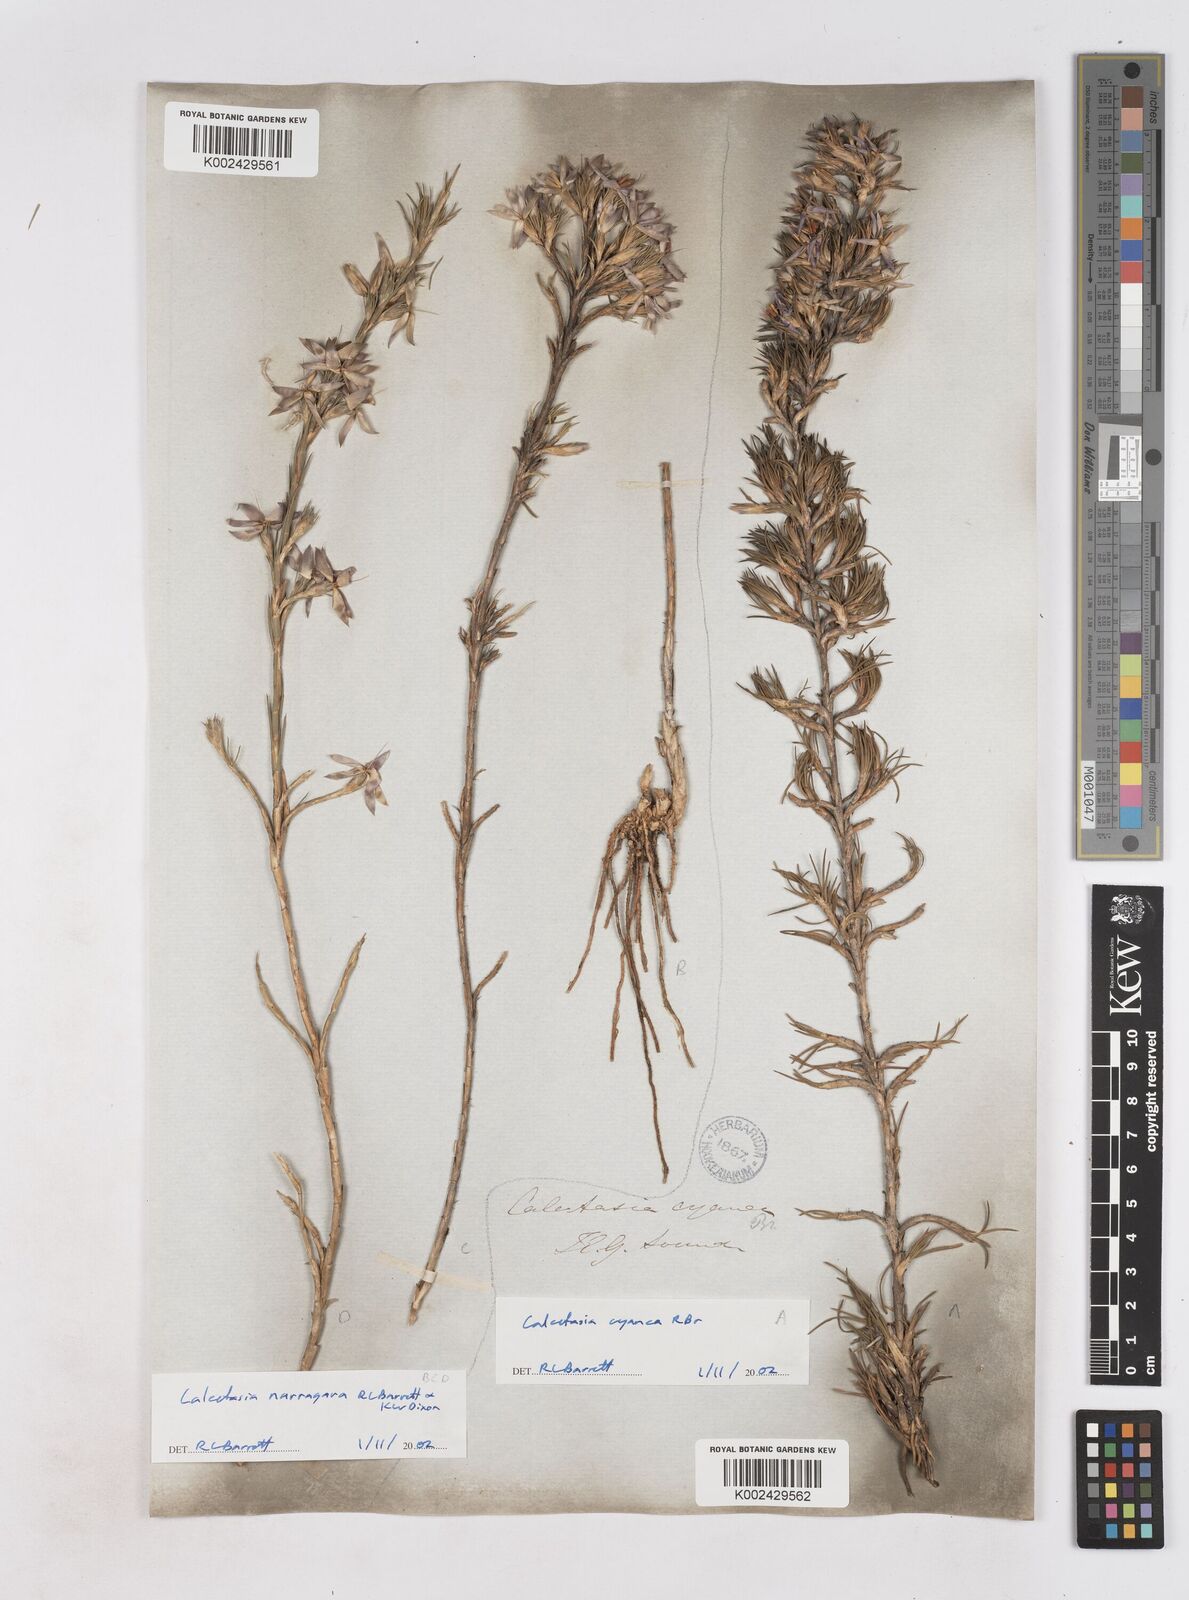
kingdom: Plantae
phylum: Tracheophyta
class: Liliopsida
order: Arecales
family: Dasypogonaceae
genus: Calectasia
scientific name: Calectasia cyanea
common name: Blue tinsel-lily
